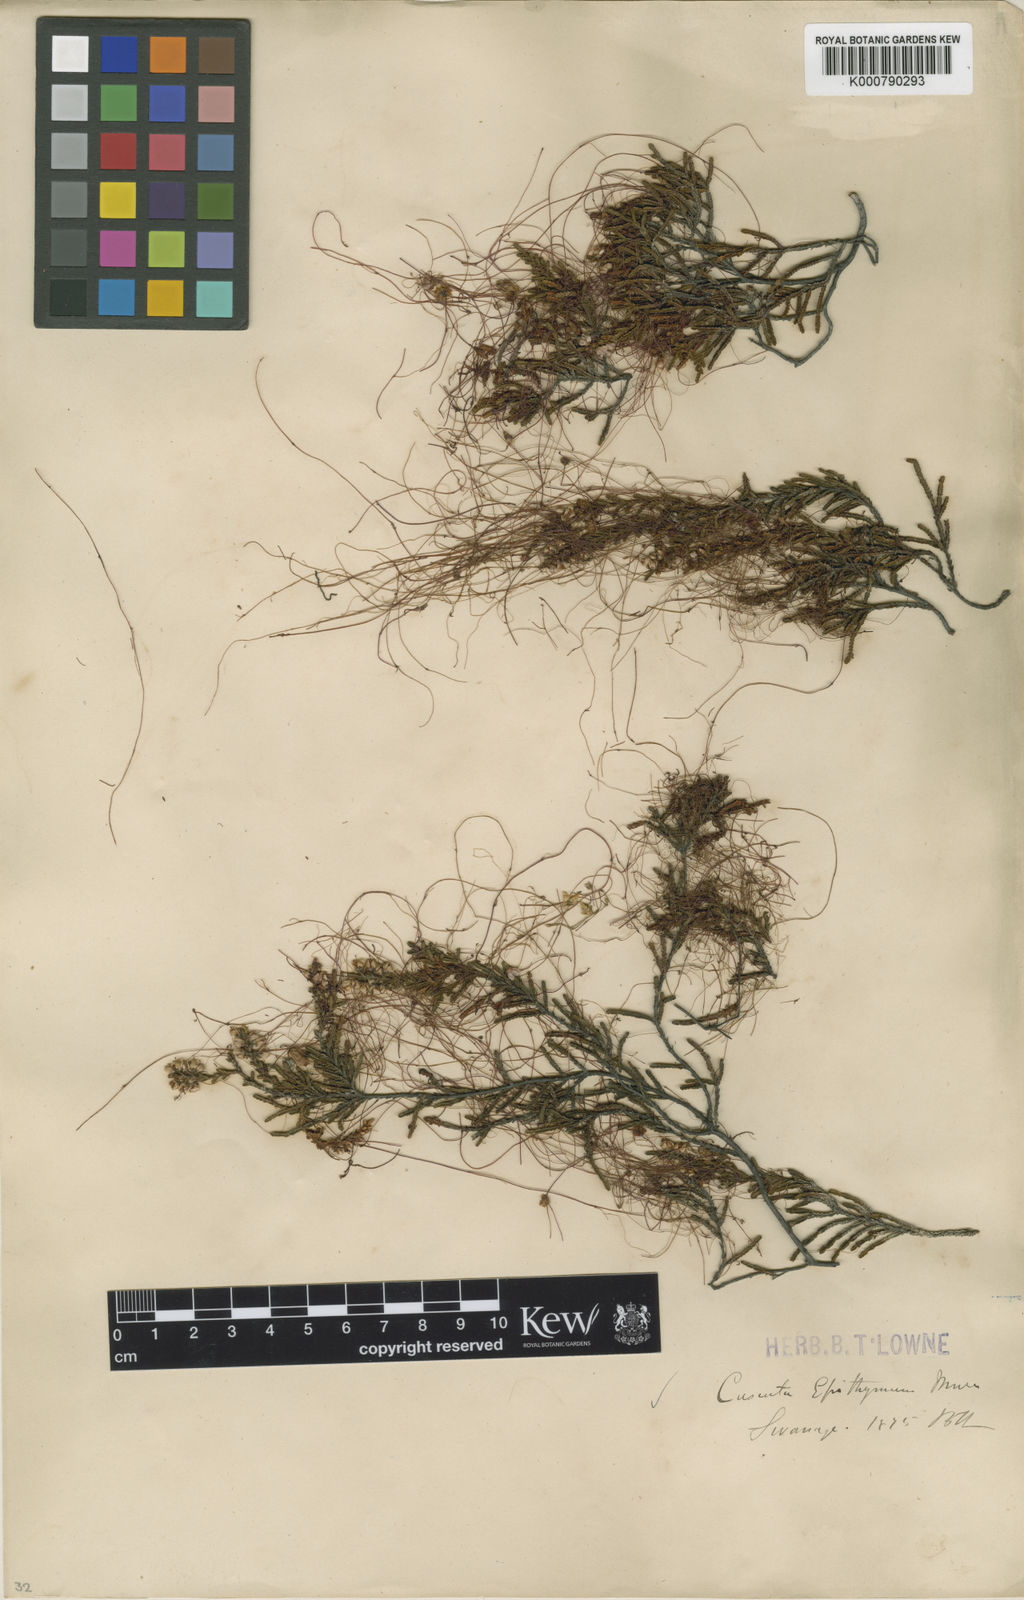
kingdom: Plantae
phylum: Tracheophyta
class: Magnoliopsida
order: Solanales
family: Convolvulaceae
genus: Cuscuta
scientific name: Cuscuta epithymum
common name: Clover dodder
